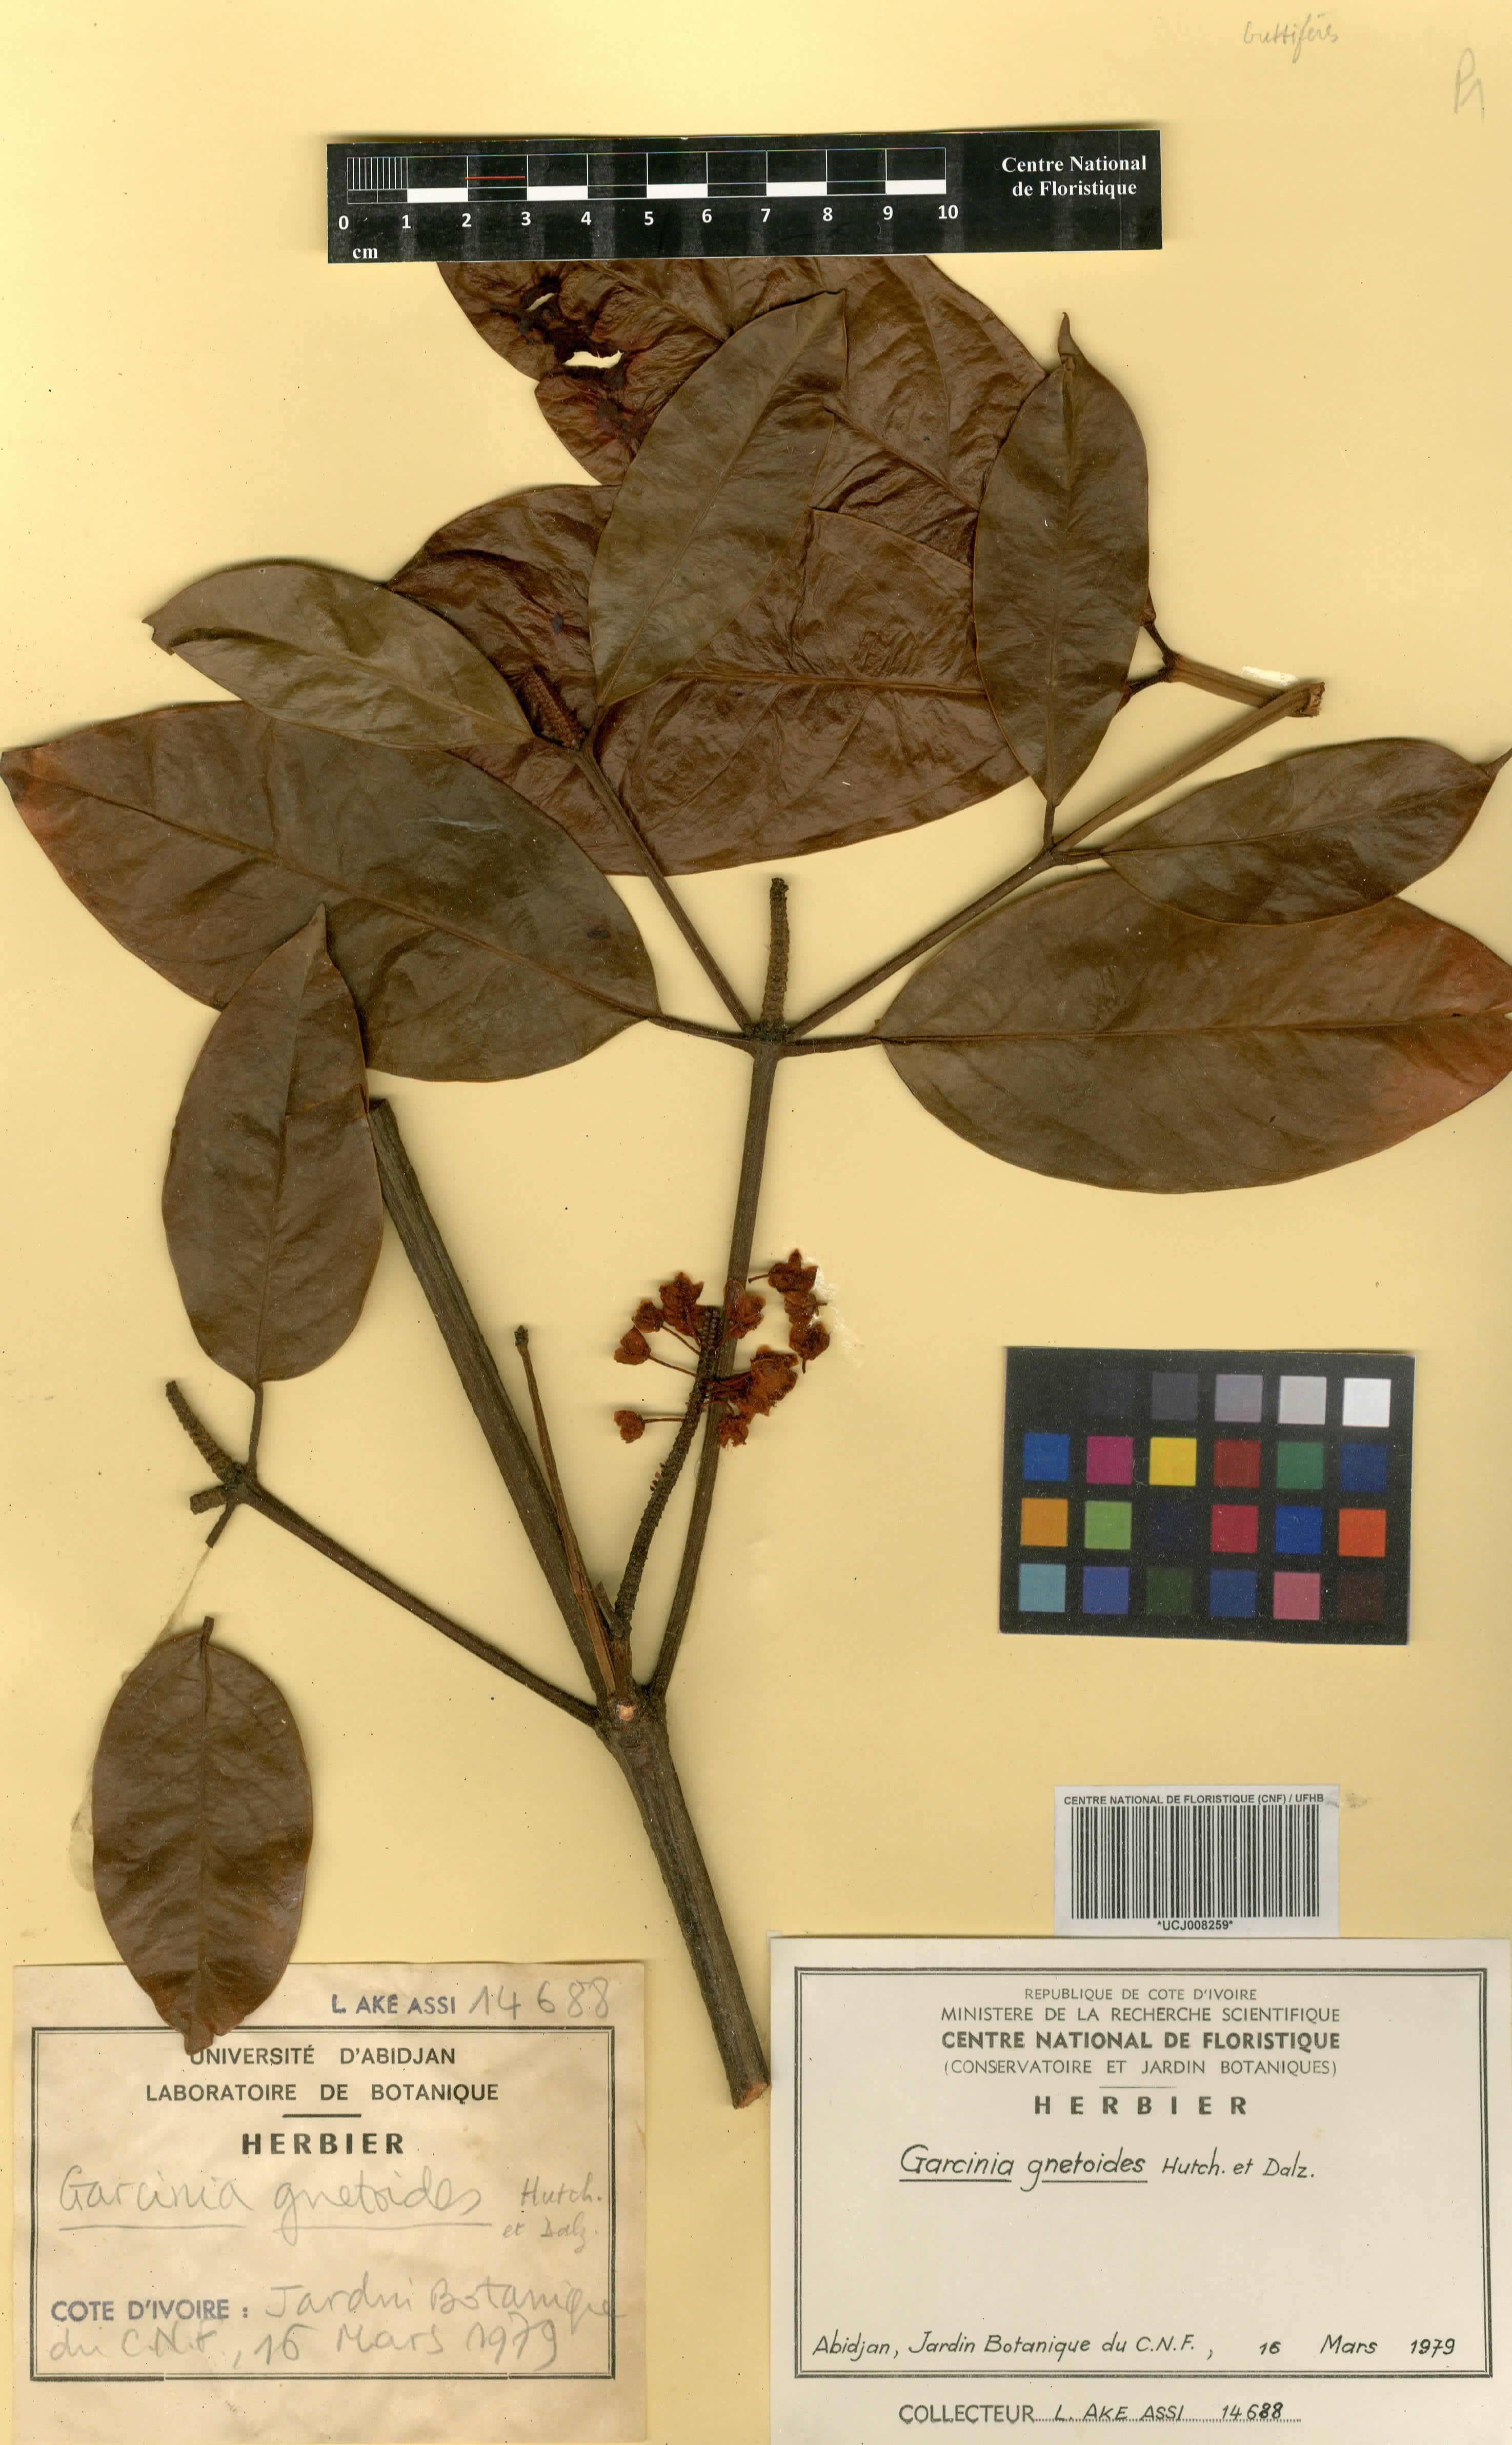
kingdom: Plantae
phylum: Tracheophyta
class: Magnoliopsida
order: Malpighiales
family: Clusiaceae
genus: Garcinia
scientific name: Garcinia gnetoides
